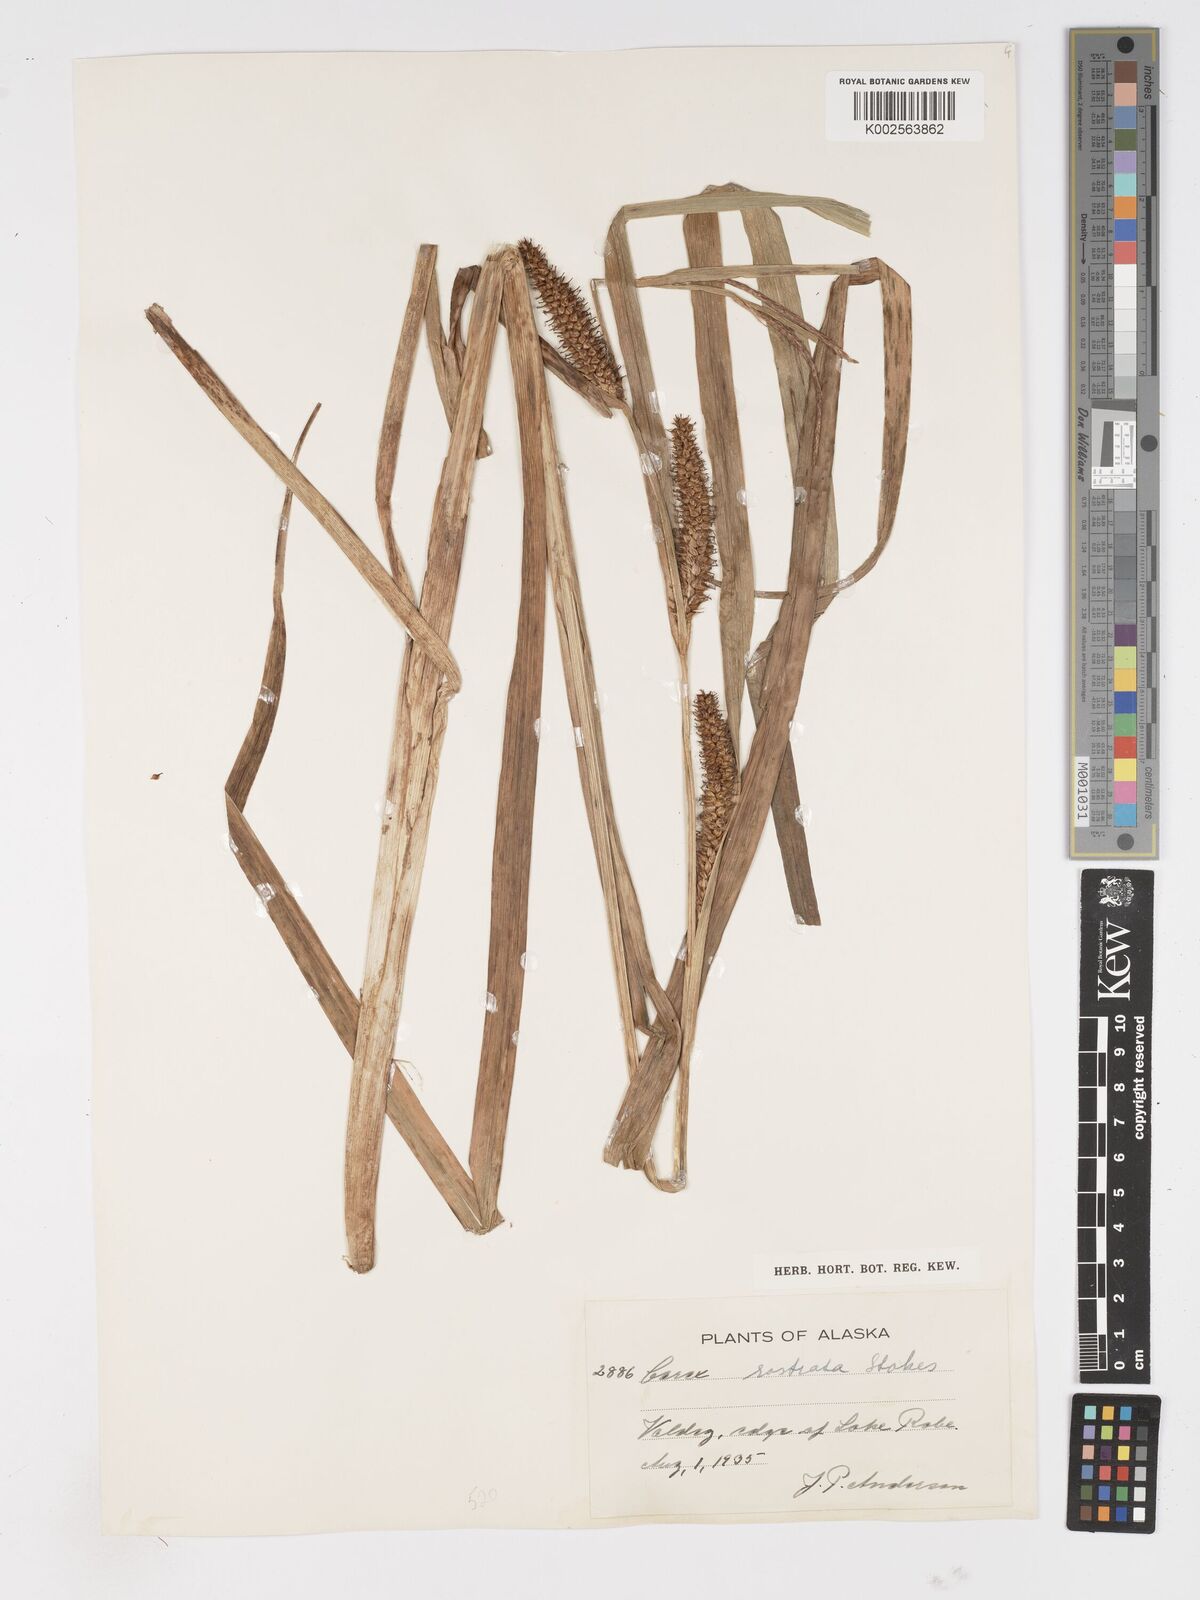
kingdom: Plantae
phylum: Tracheophyta
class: Liliopsida
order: Poales
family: Cyperaceae
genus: Carex
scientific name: Carex rostrata
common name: Bottle sedge
